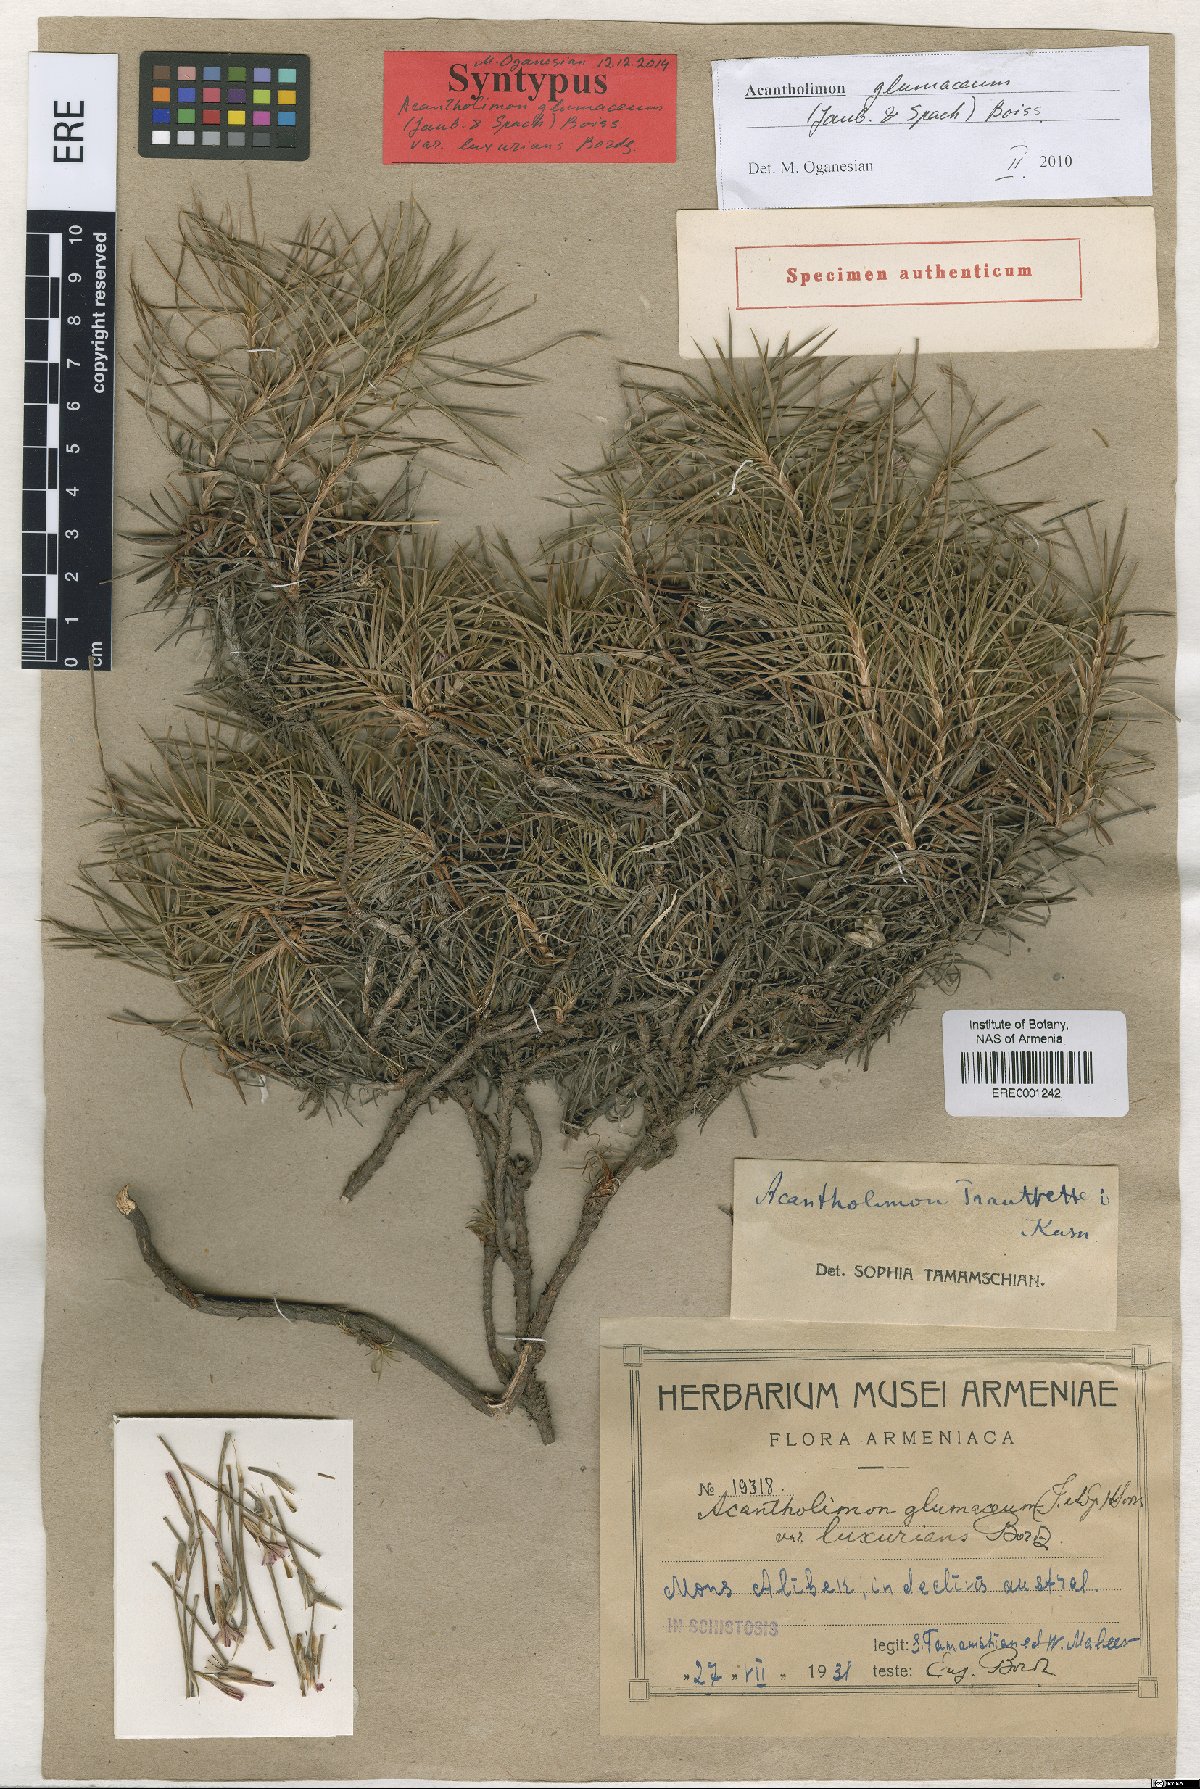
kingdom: Plantae
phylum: Tracheophyta
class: Magnoliopsida
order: Caryophyllales
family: Plumbaginaceae
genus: Acantholimon
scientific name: Acantholimon glumaceum
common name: Prickly-thrift
